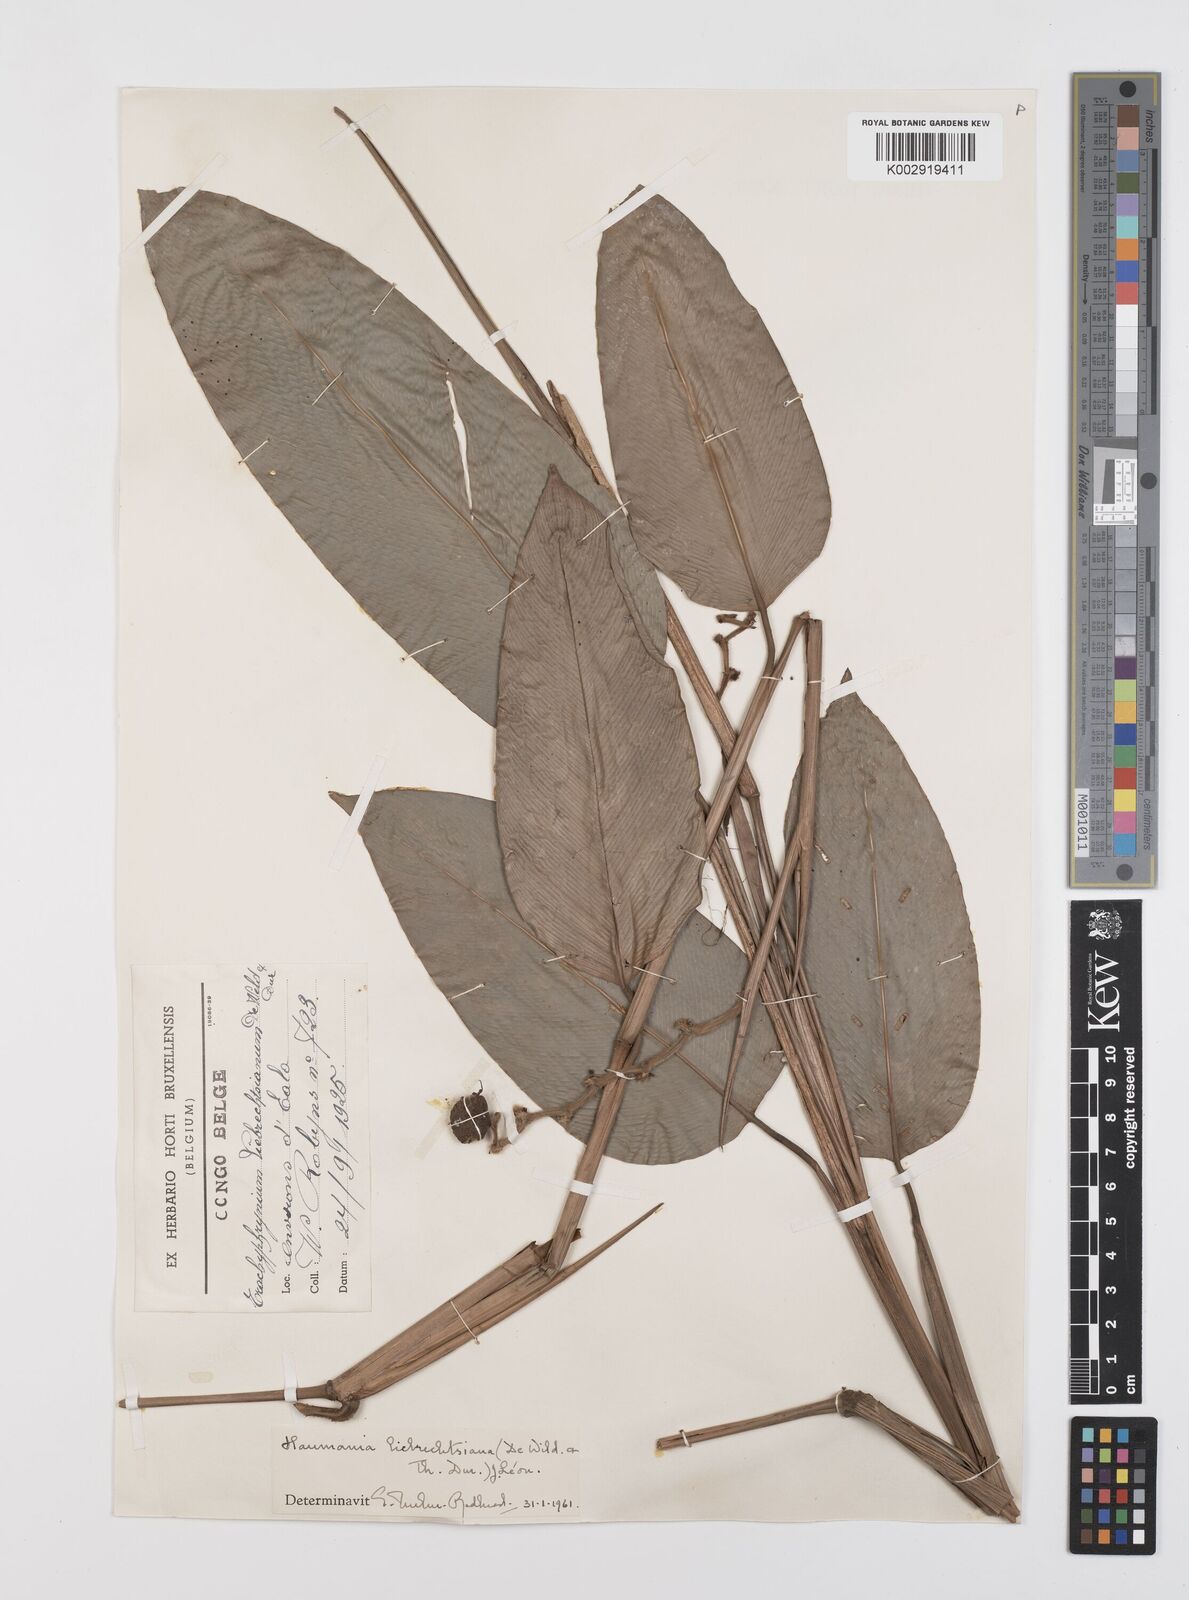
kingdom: Plantae
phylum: Tracheophyta
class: Liliopsida
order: Zingiberales
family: Marantaceae
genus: Haumania
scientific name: Haumania liebrechtsiana
